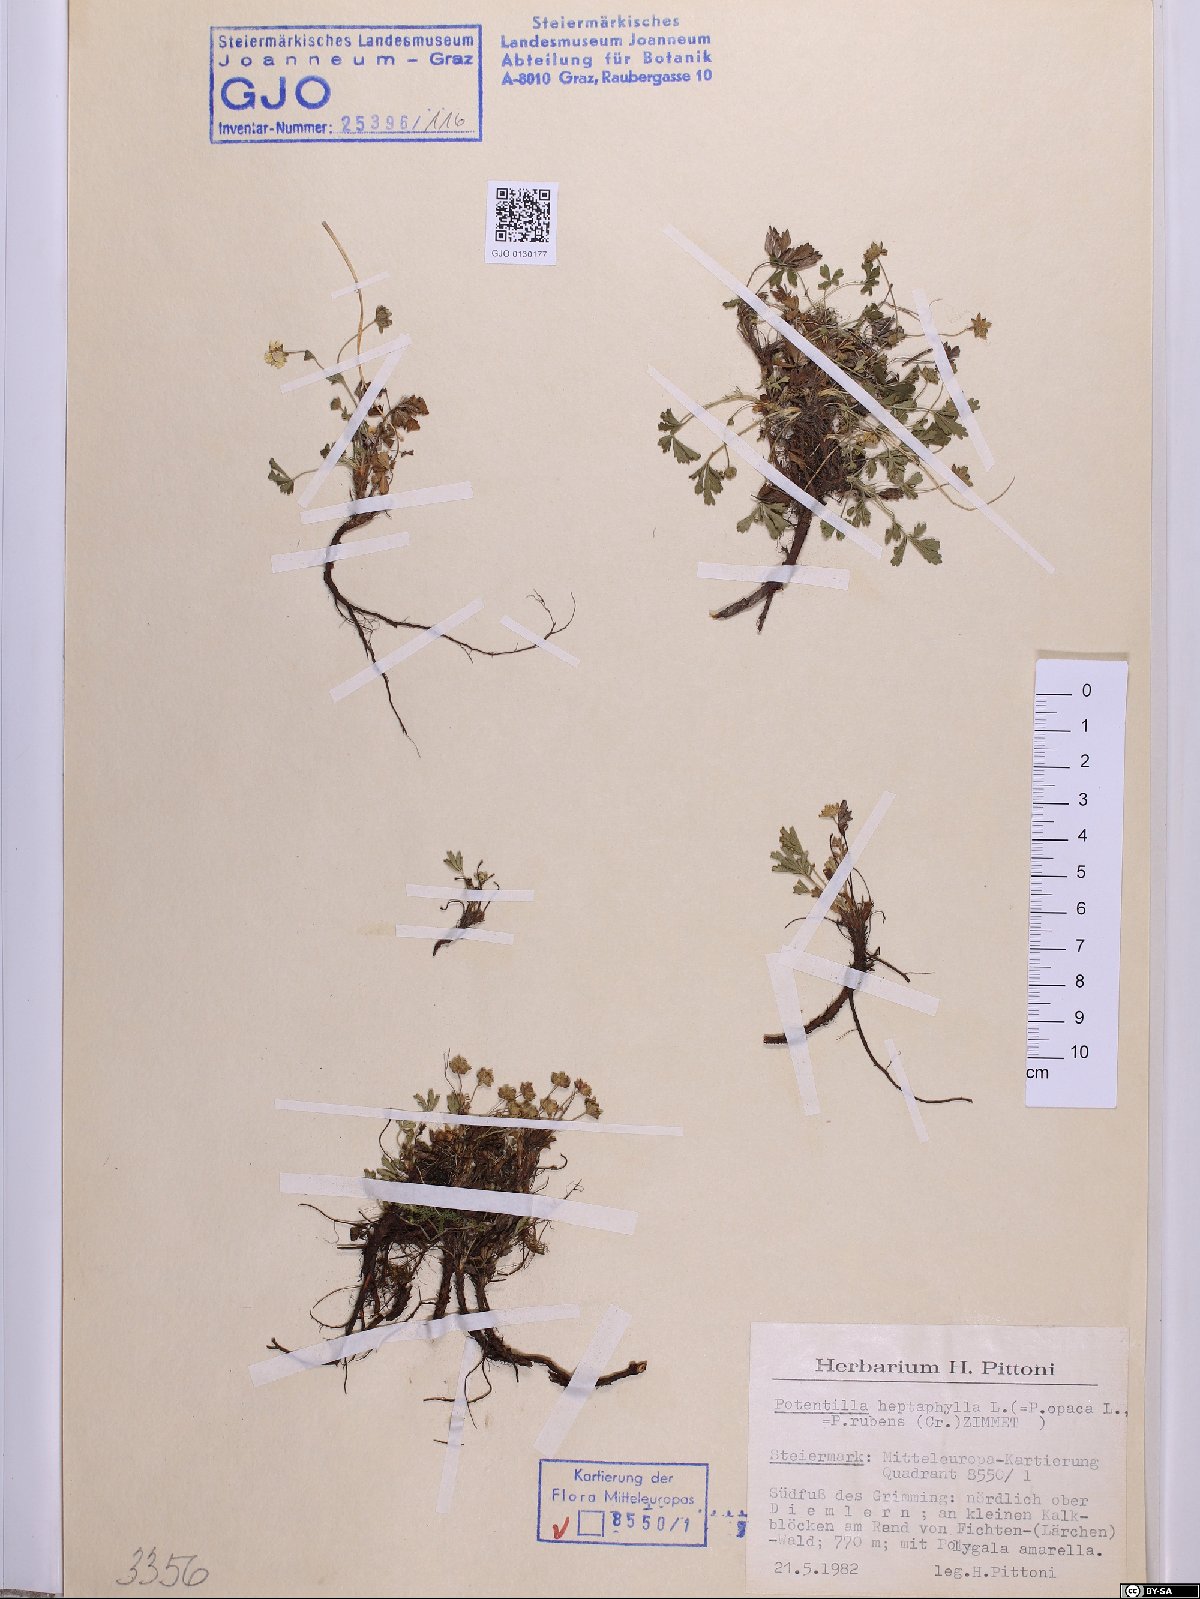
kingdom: Plantae
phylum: Tracheophyta
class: Magnoliopsida
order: Rosales
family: Rosaceae
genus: Potentilla
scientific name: Potentilla crantzii
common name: Alpine cinquefoil
